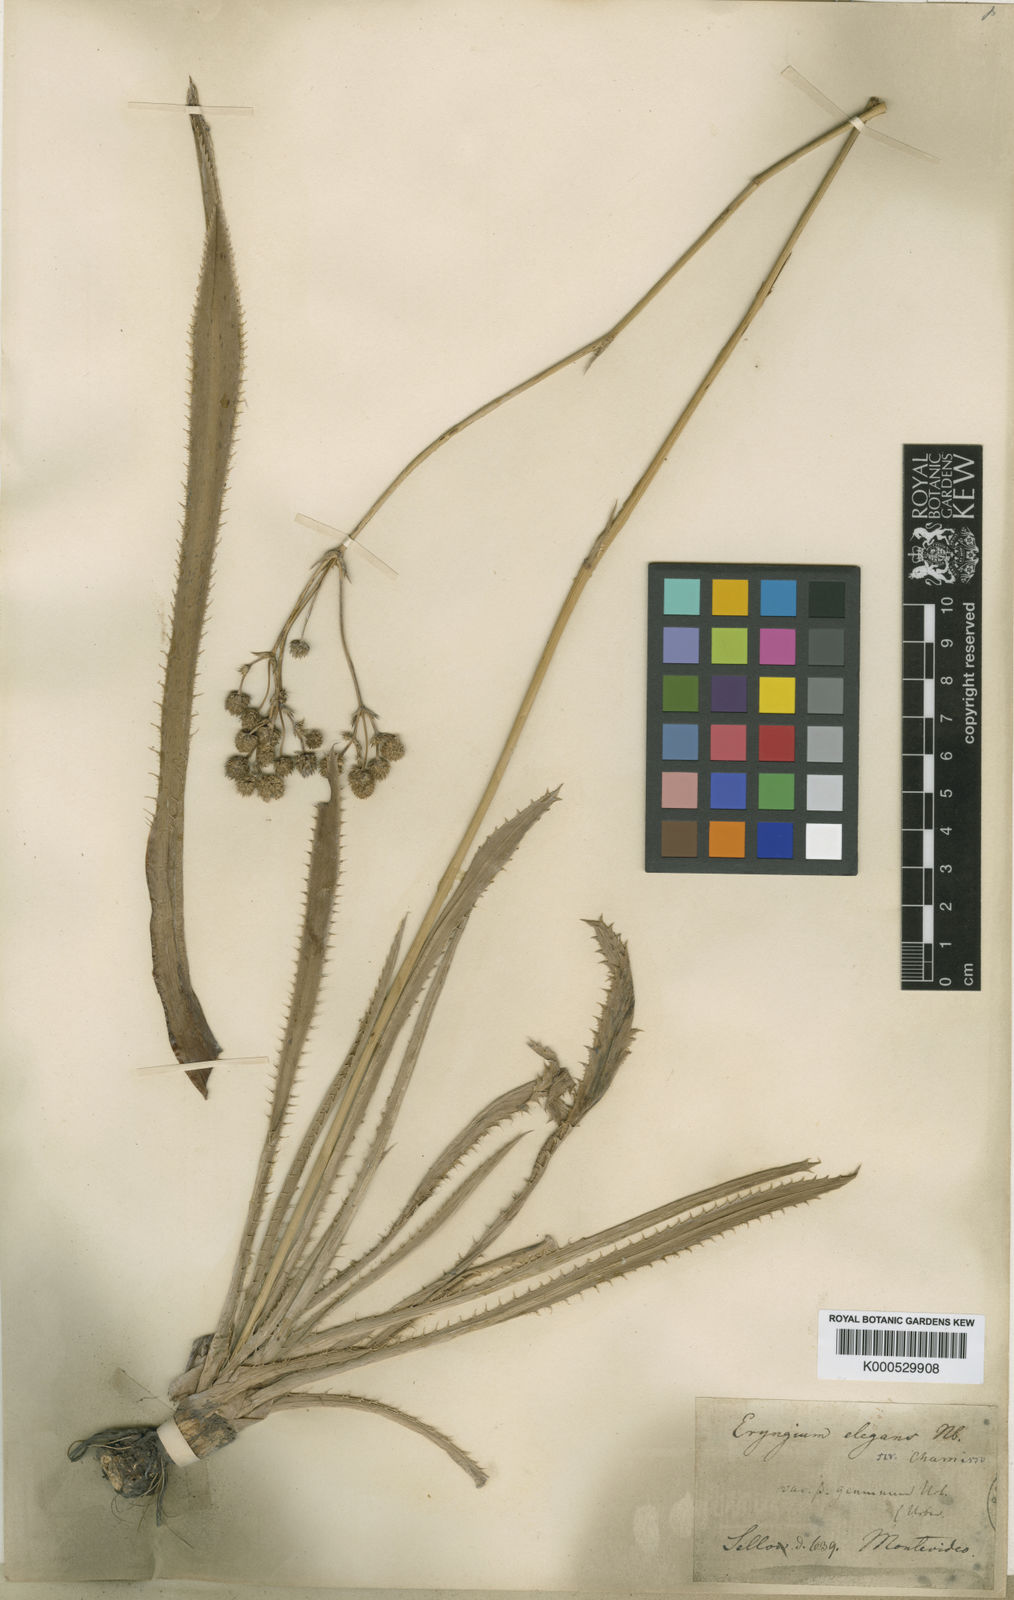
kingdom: Plantae
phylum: Tracheophyta
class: Magnoliopsida
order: Apiales
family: Apiaceae
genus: Eryngium
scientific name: Eryngium elegans
